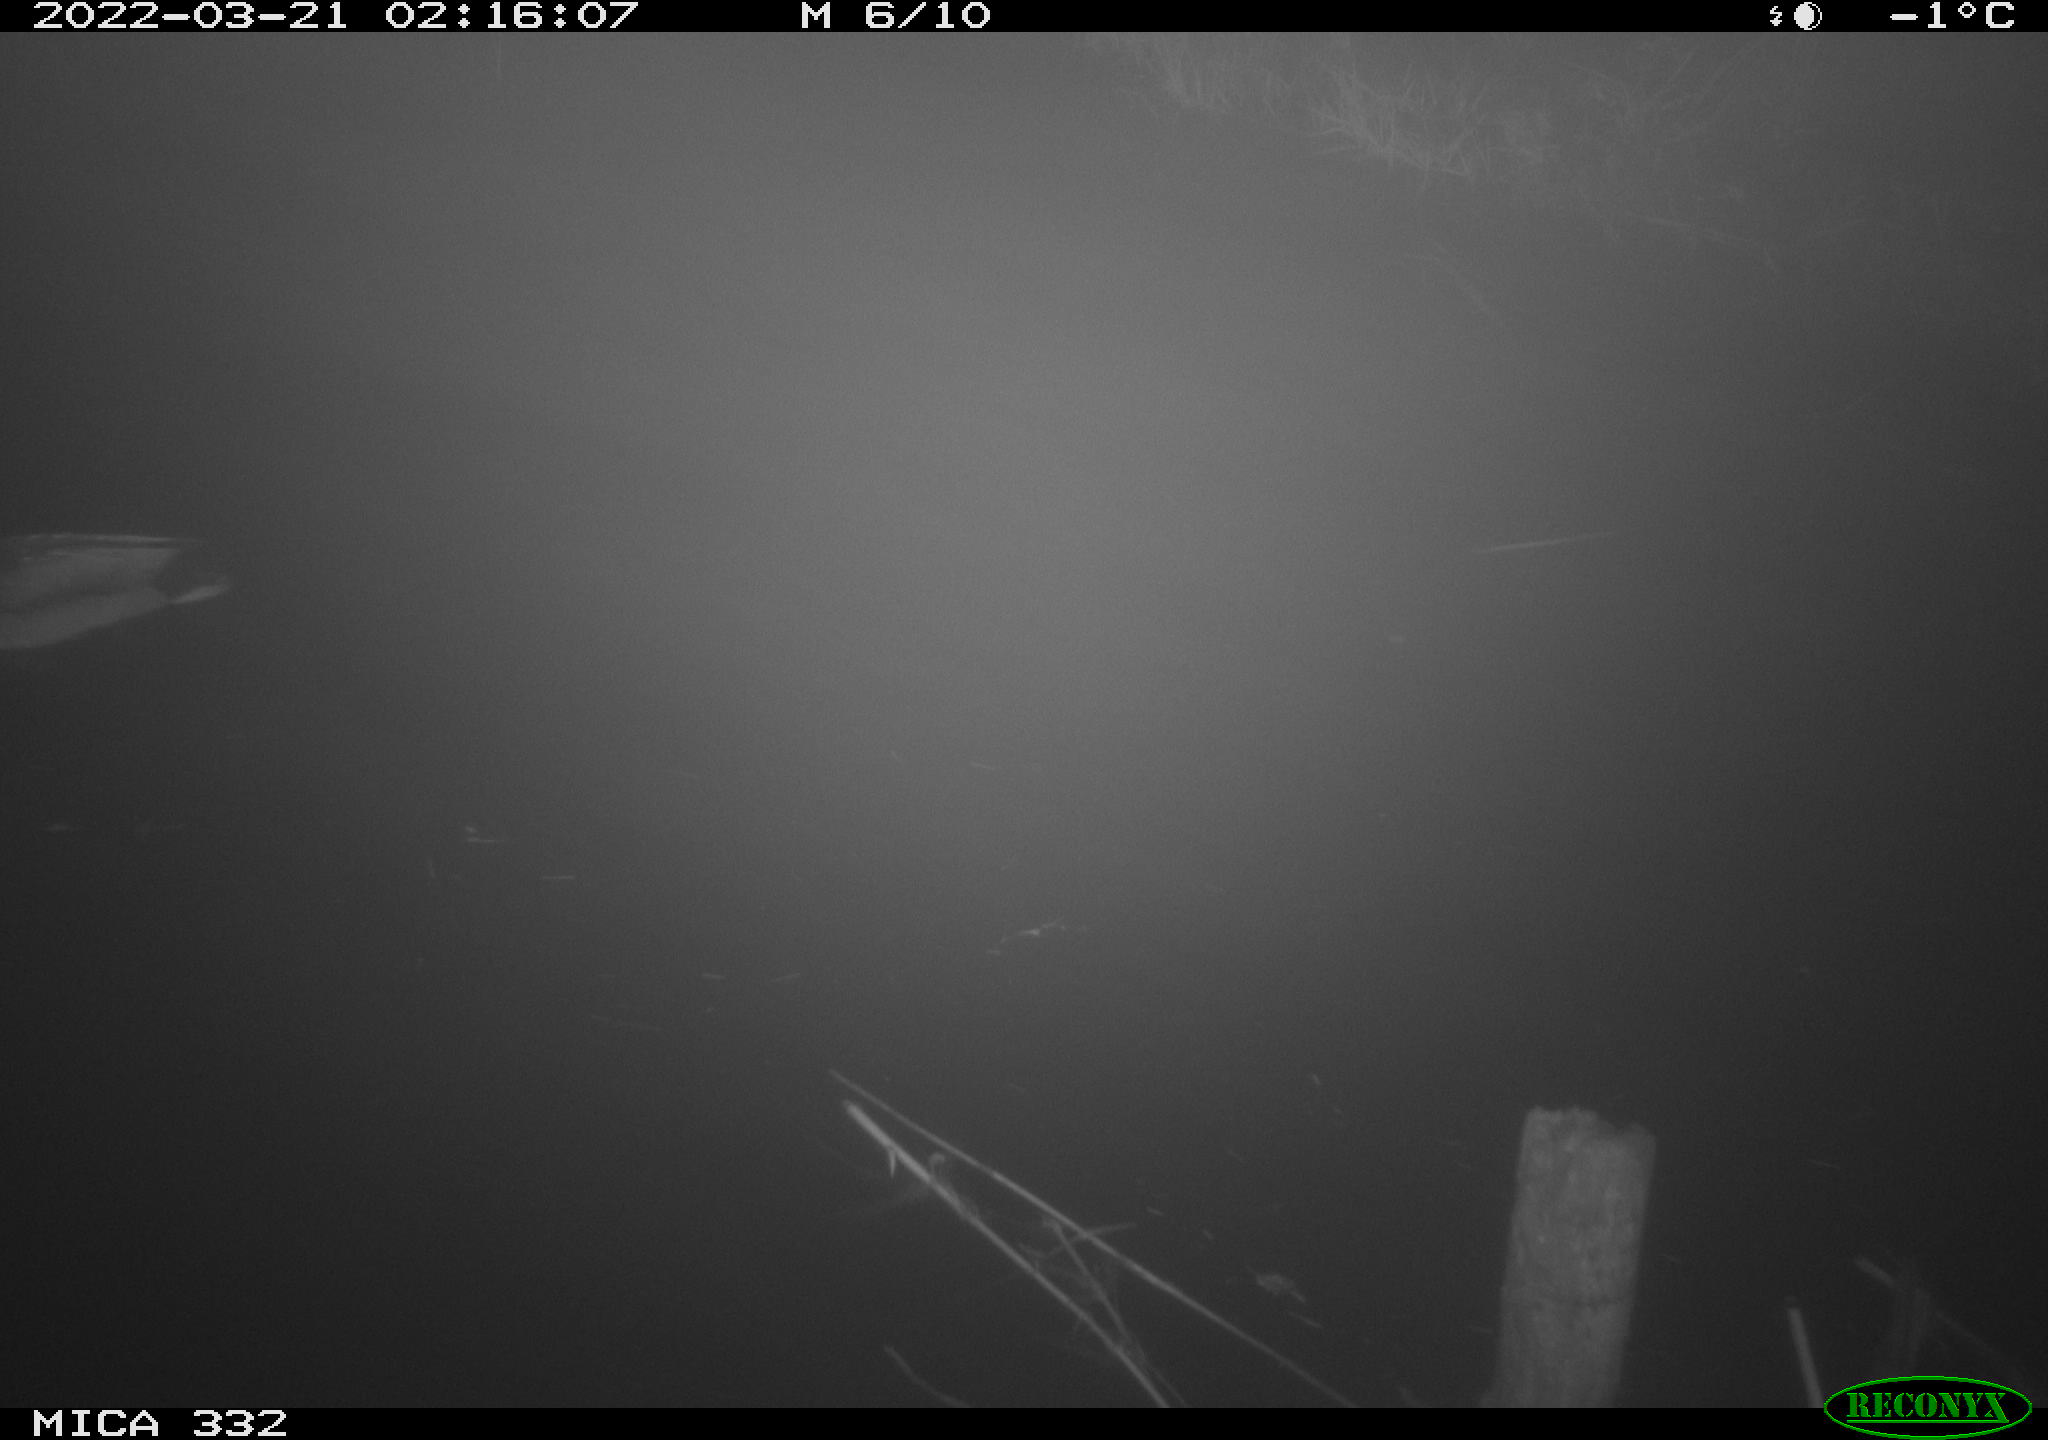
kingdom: Animalia
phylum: Chordata
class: Aves
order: Anseriformes
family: Anatidae
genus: Anas
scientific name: Anas platyrhynchos
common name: Mallard
